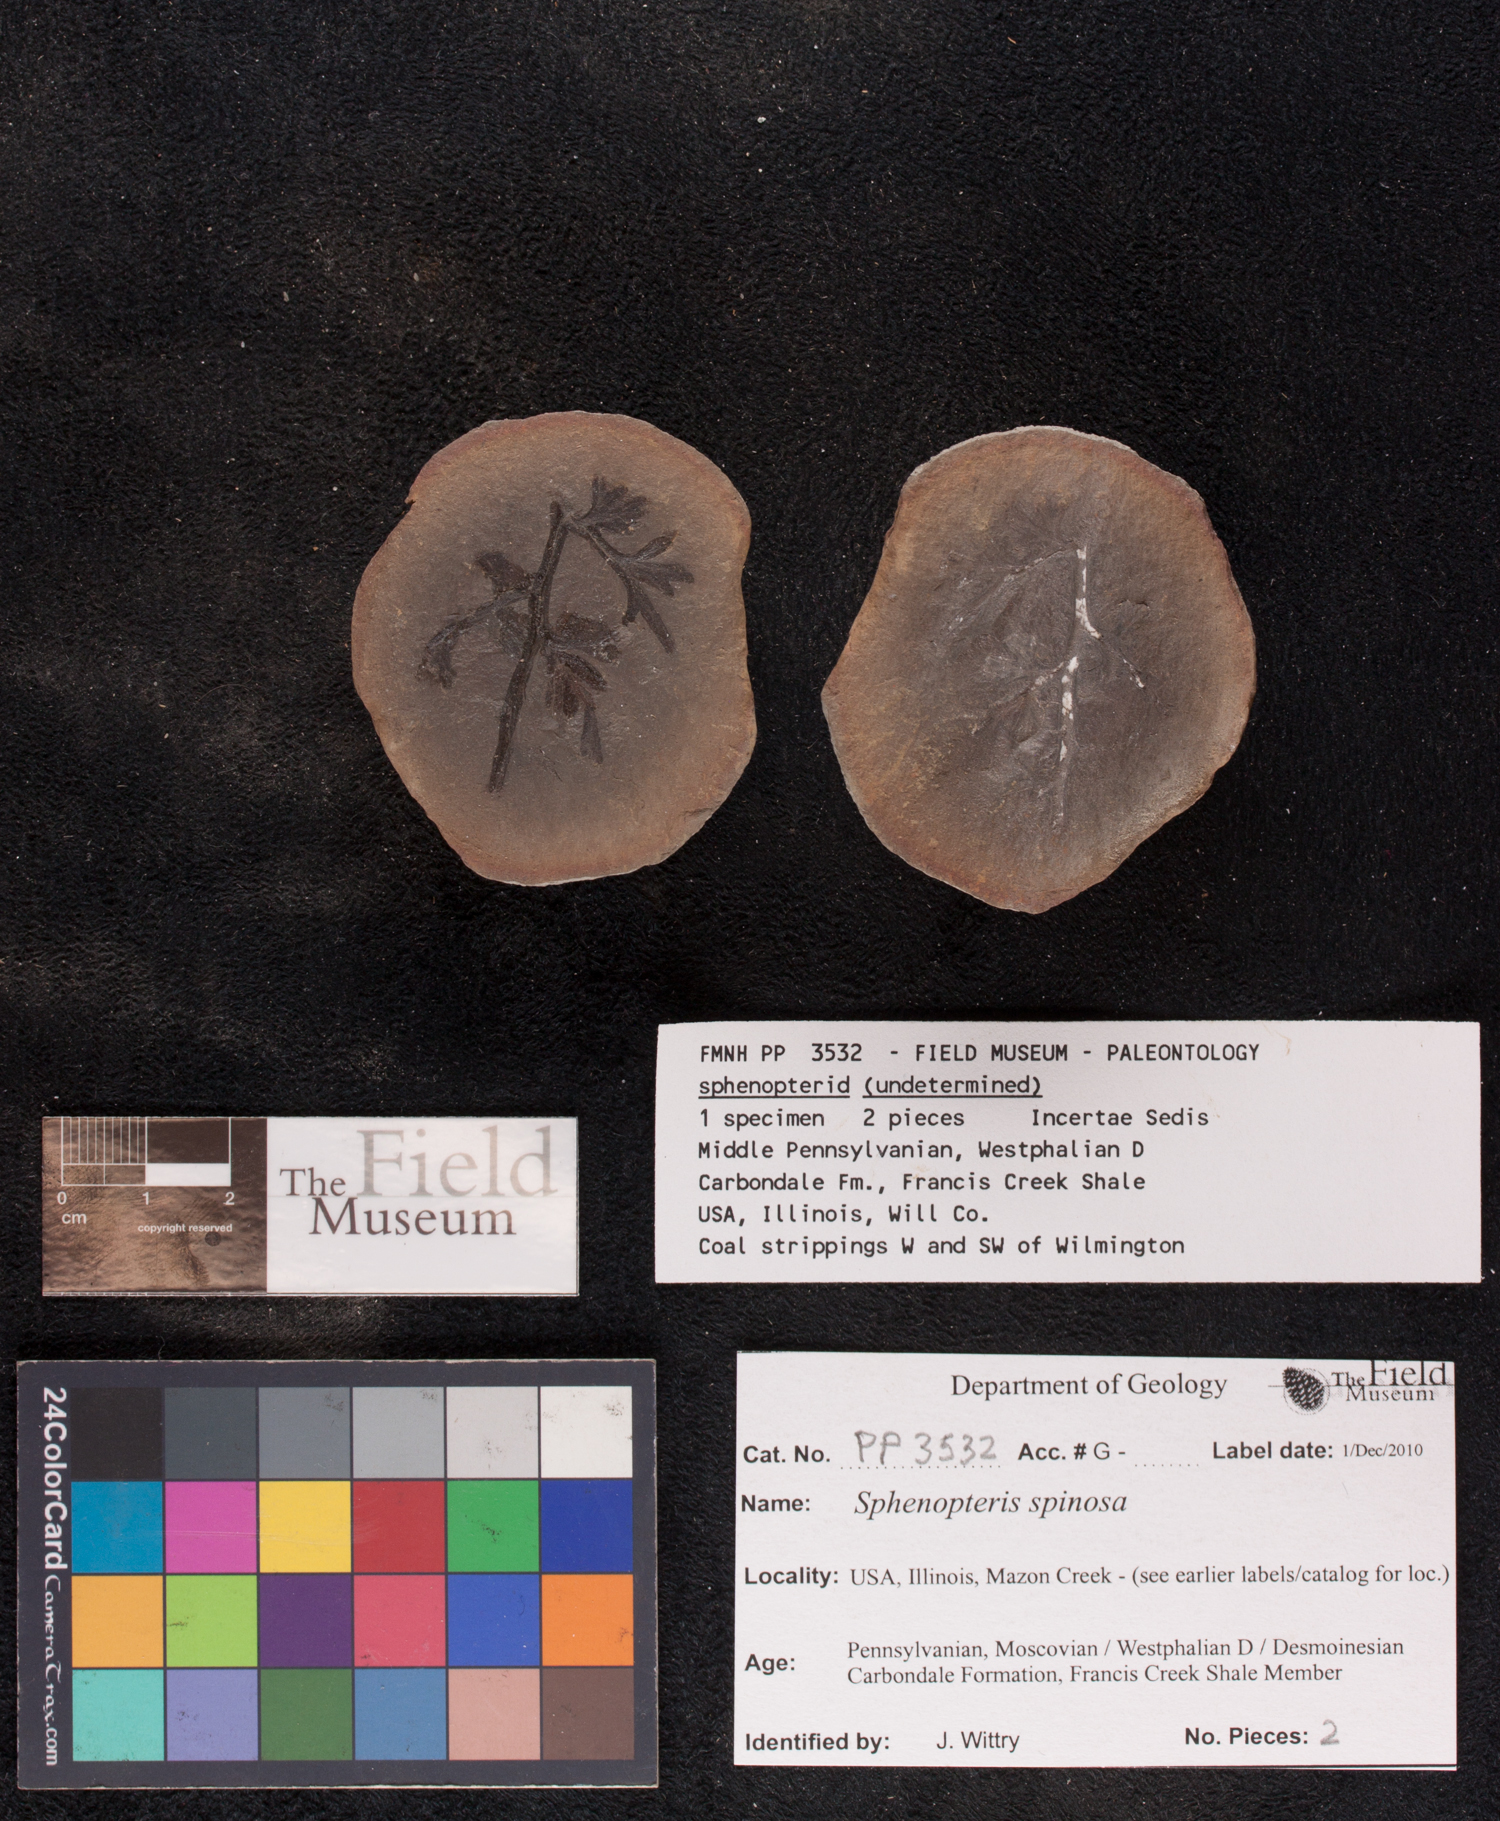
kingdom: Plantae
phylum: Tracheophyta
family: Lyginopteridaceae
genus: Sphenopteris
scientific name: Sphenopteris
